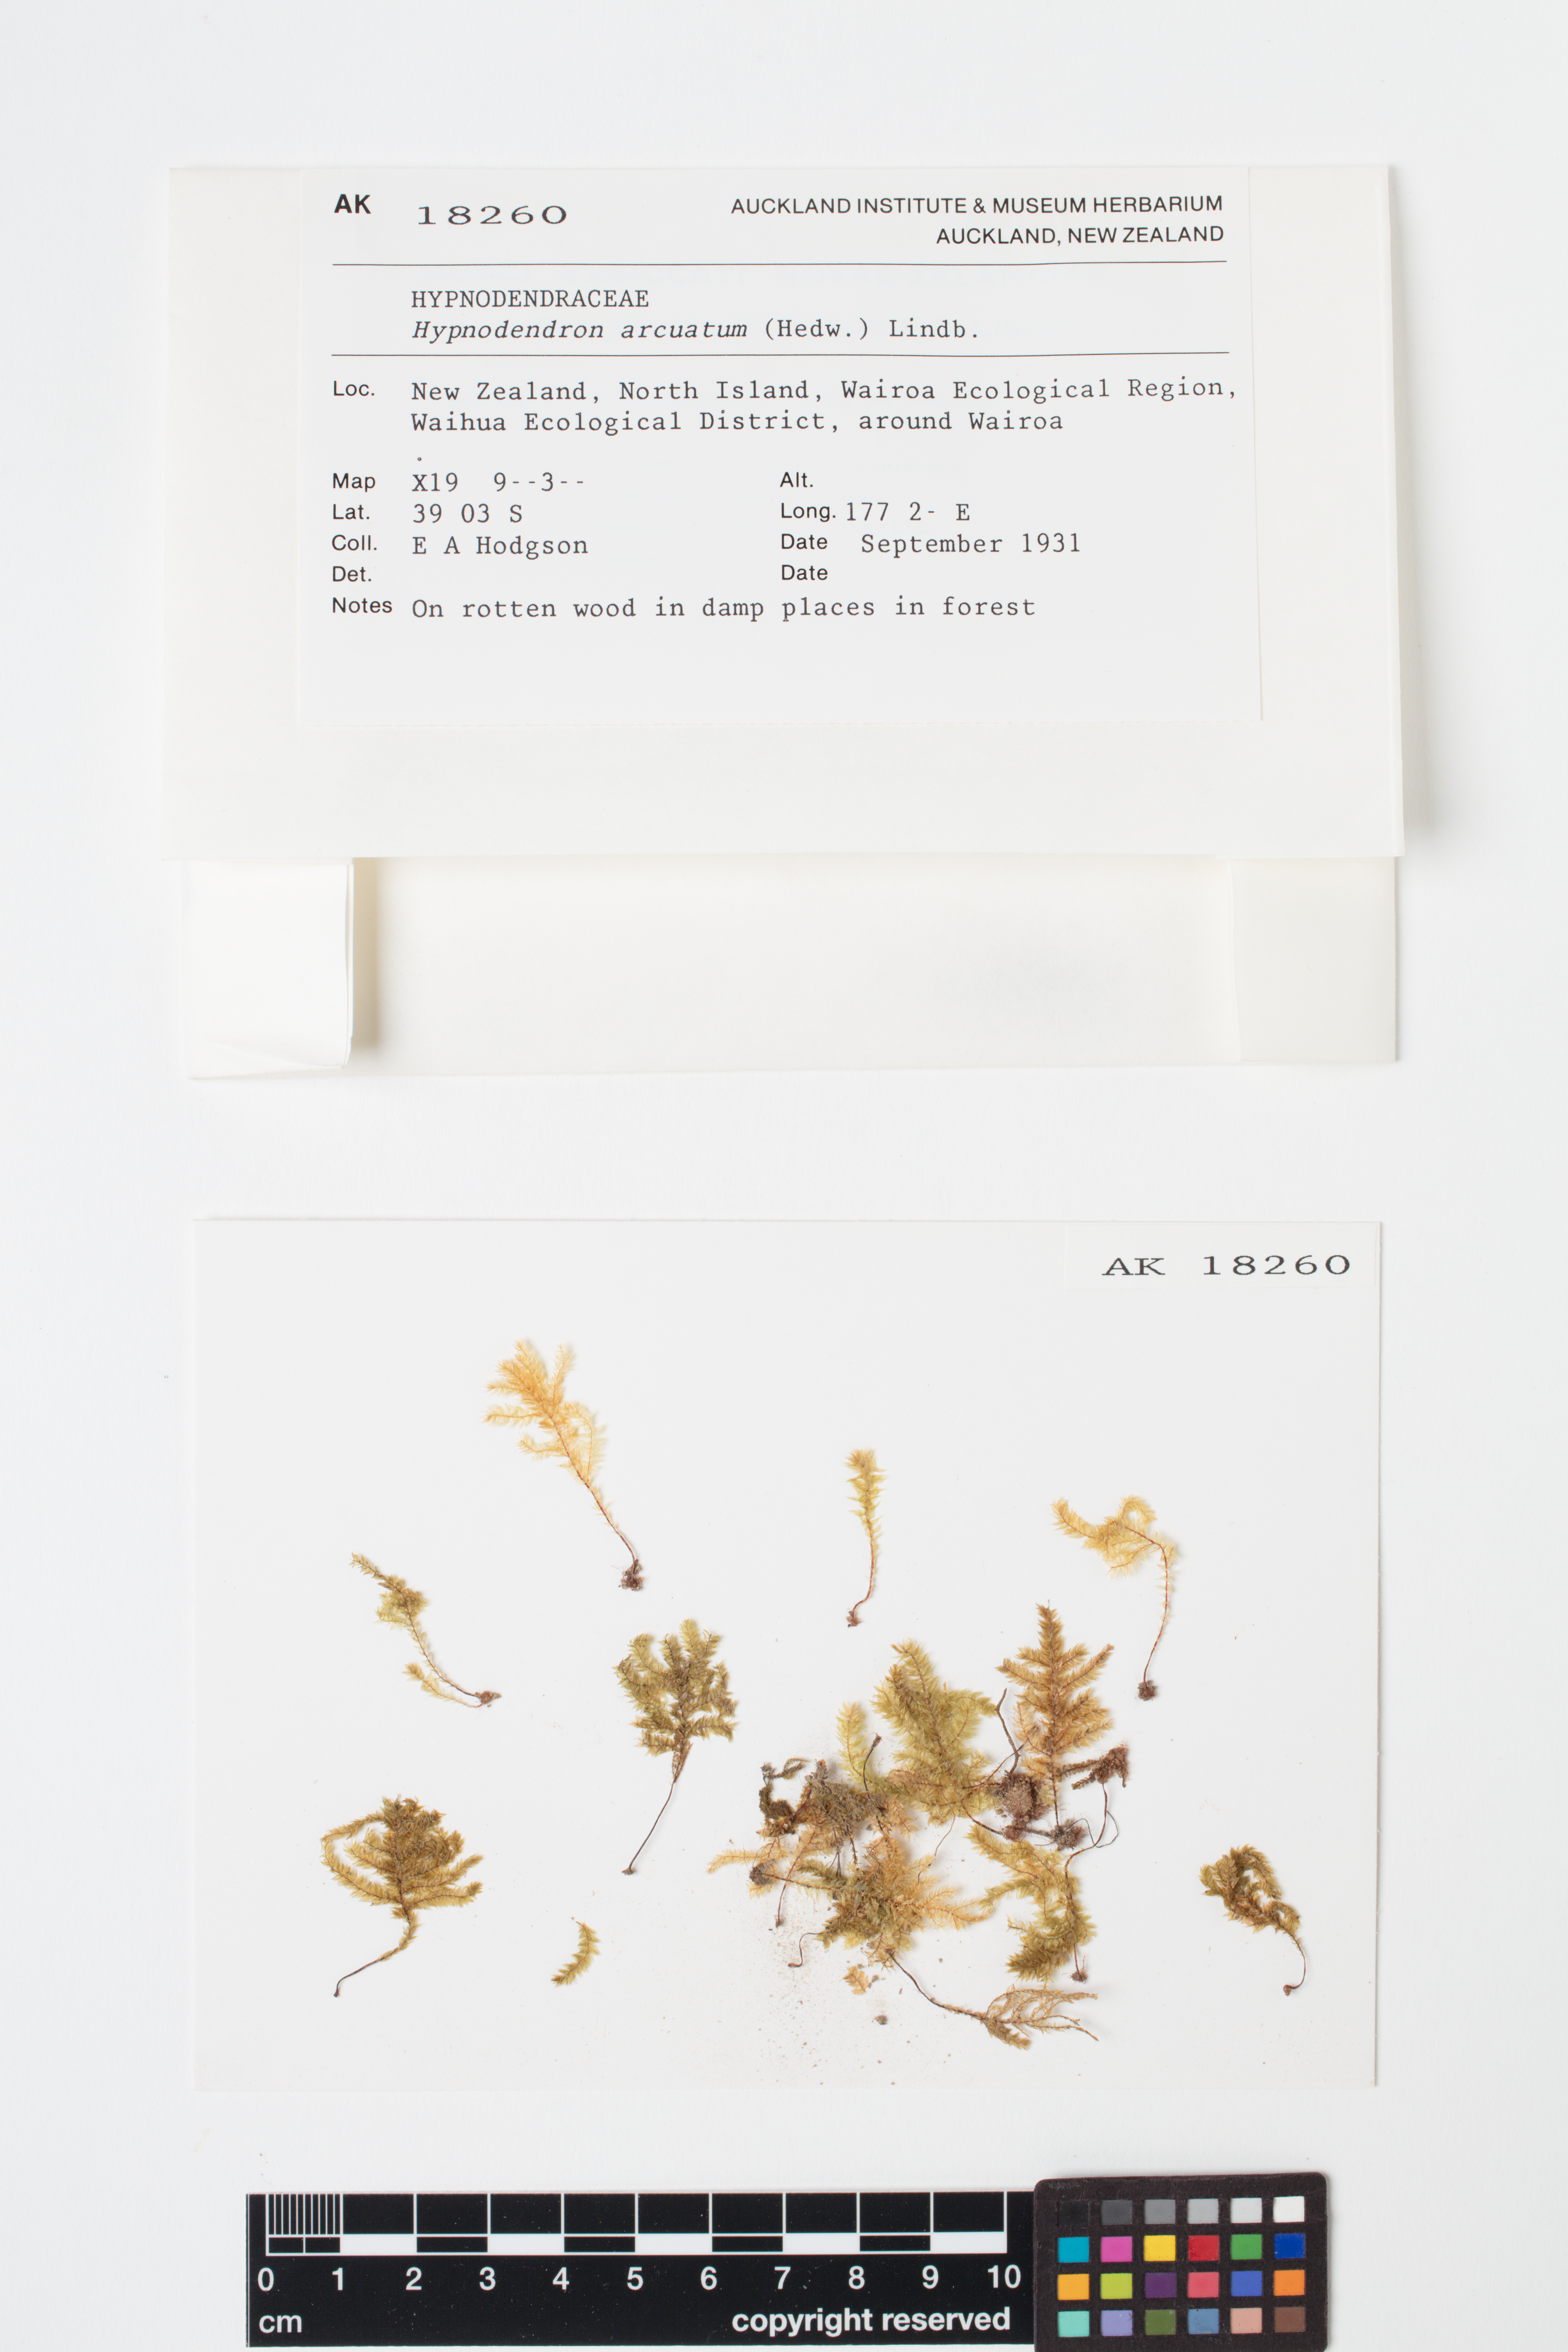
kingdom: Plantae
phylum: Bryophyta
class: Bryopsida
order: Hypnodendrales
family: Spiridentaceae
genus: Hypnodendron
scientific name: Hypnodendron arcuatum
